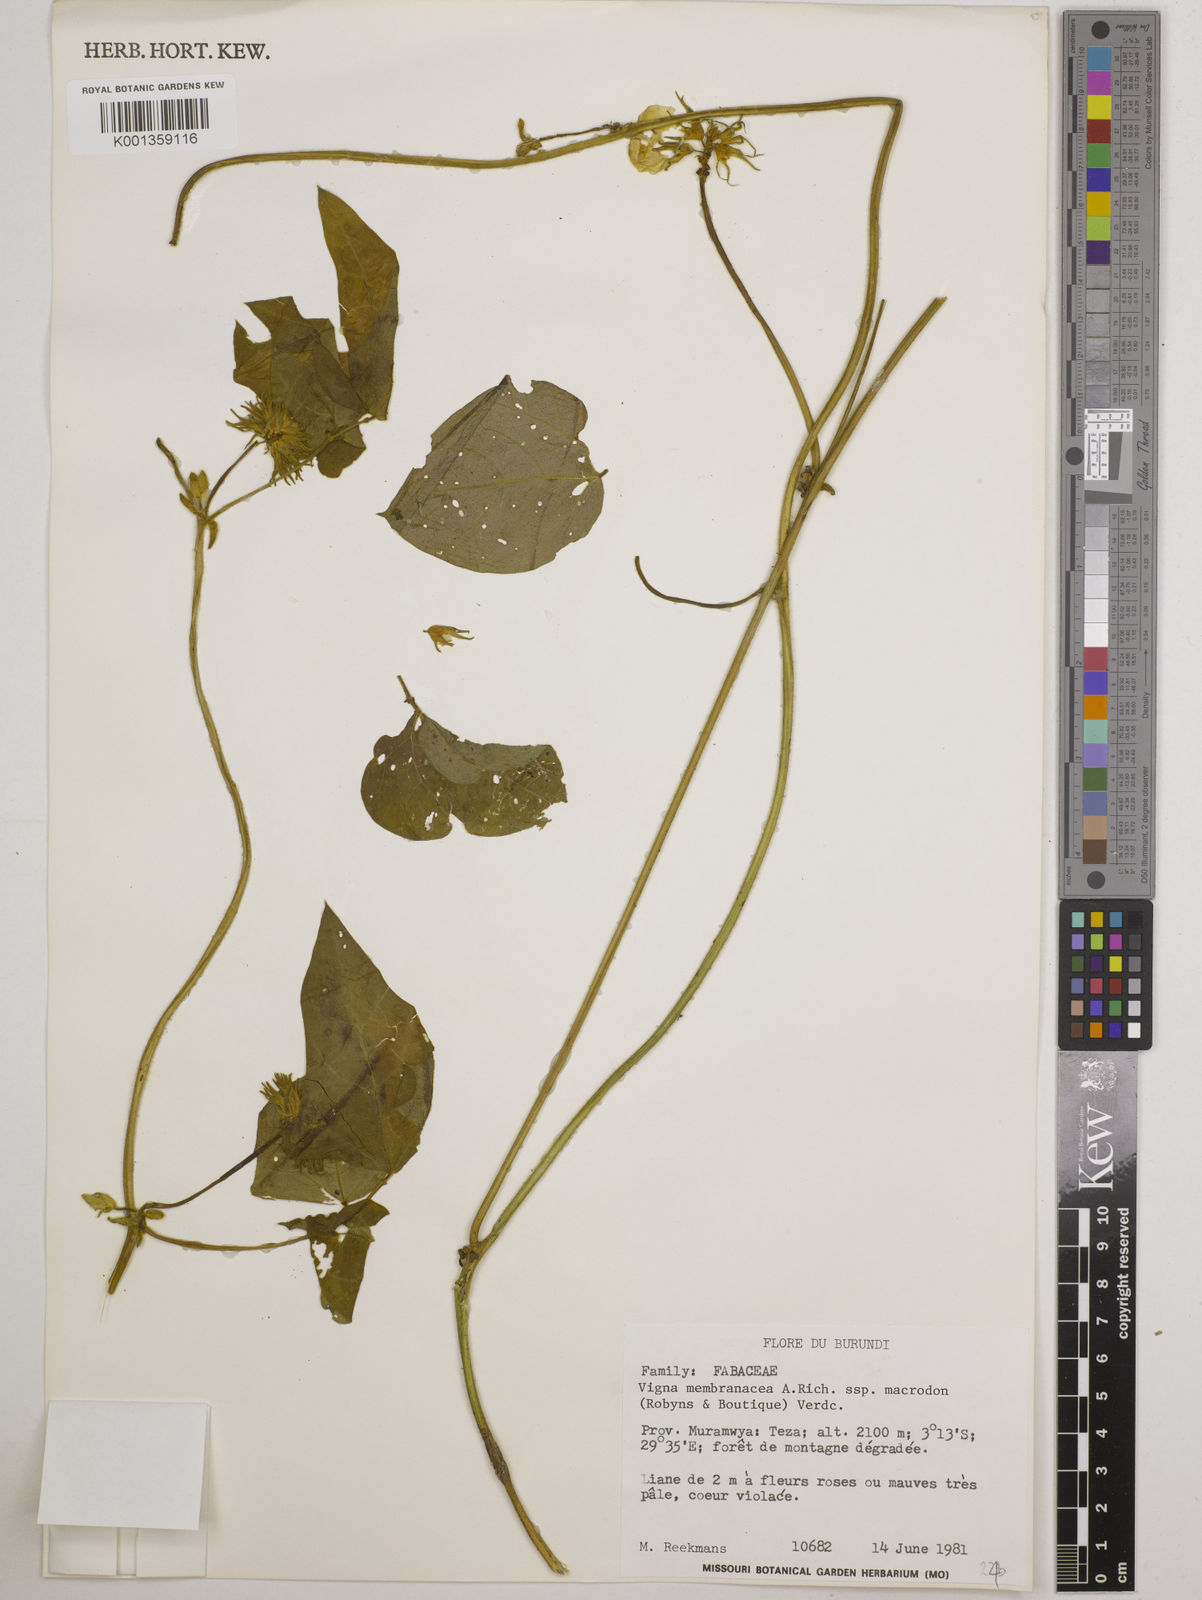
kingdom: Plantae
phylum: Tracheophyta
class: Magnoliopsida
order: Fabales
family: Fabaceae
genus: Vigna
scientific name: Vigna membranacea
